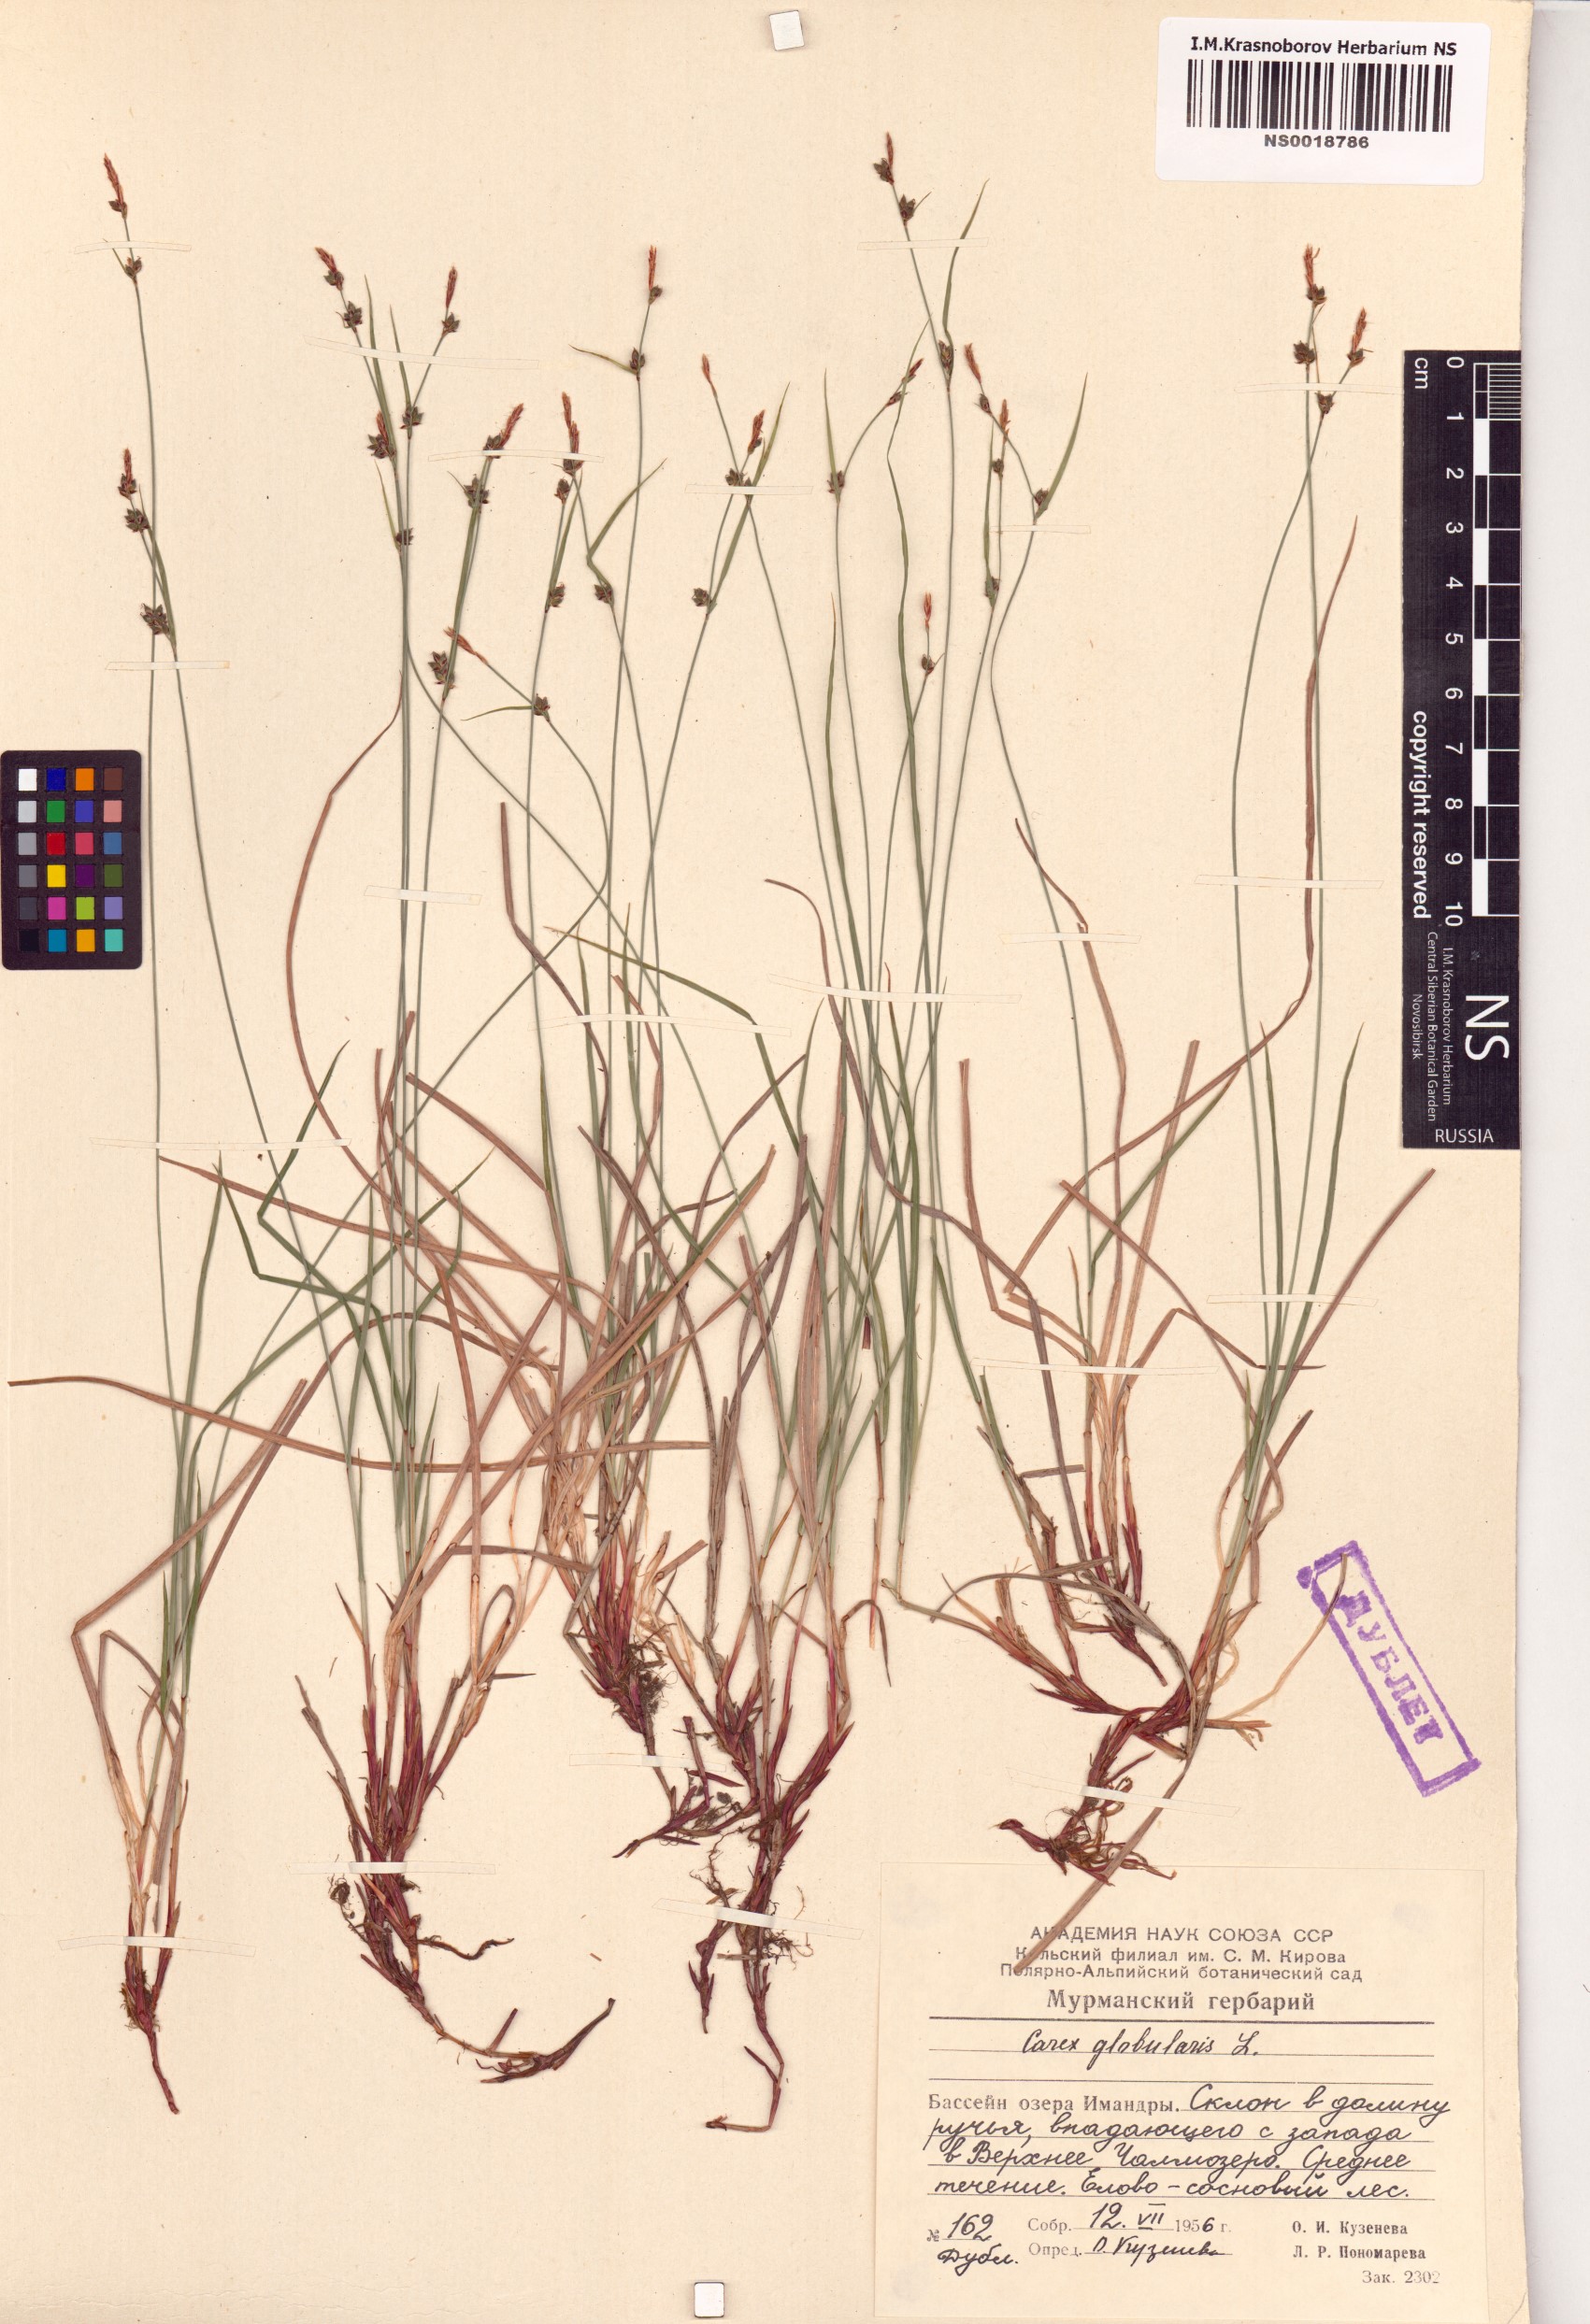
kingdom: Plantae
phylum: Tracheophyta
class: Liliopsida
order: Poales
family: Cyperaceae
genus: Carex
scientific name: Carex globularis
